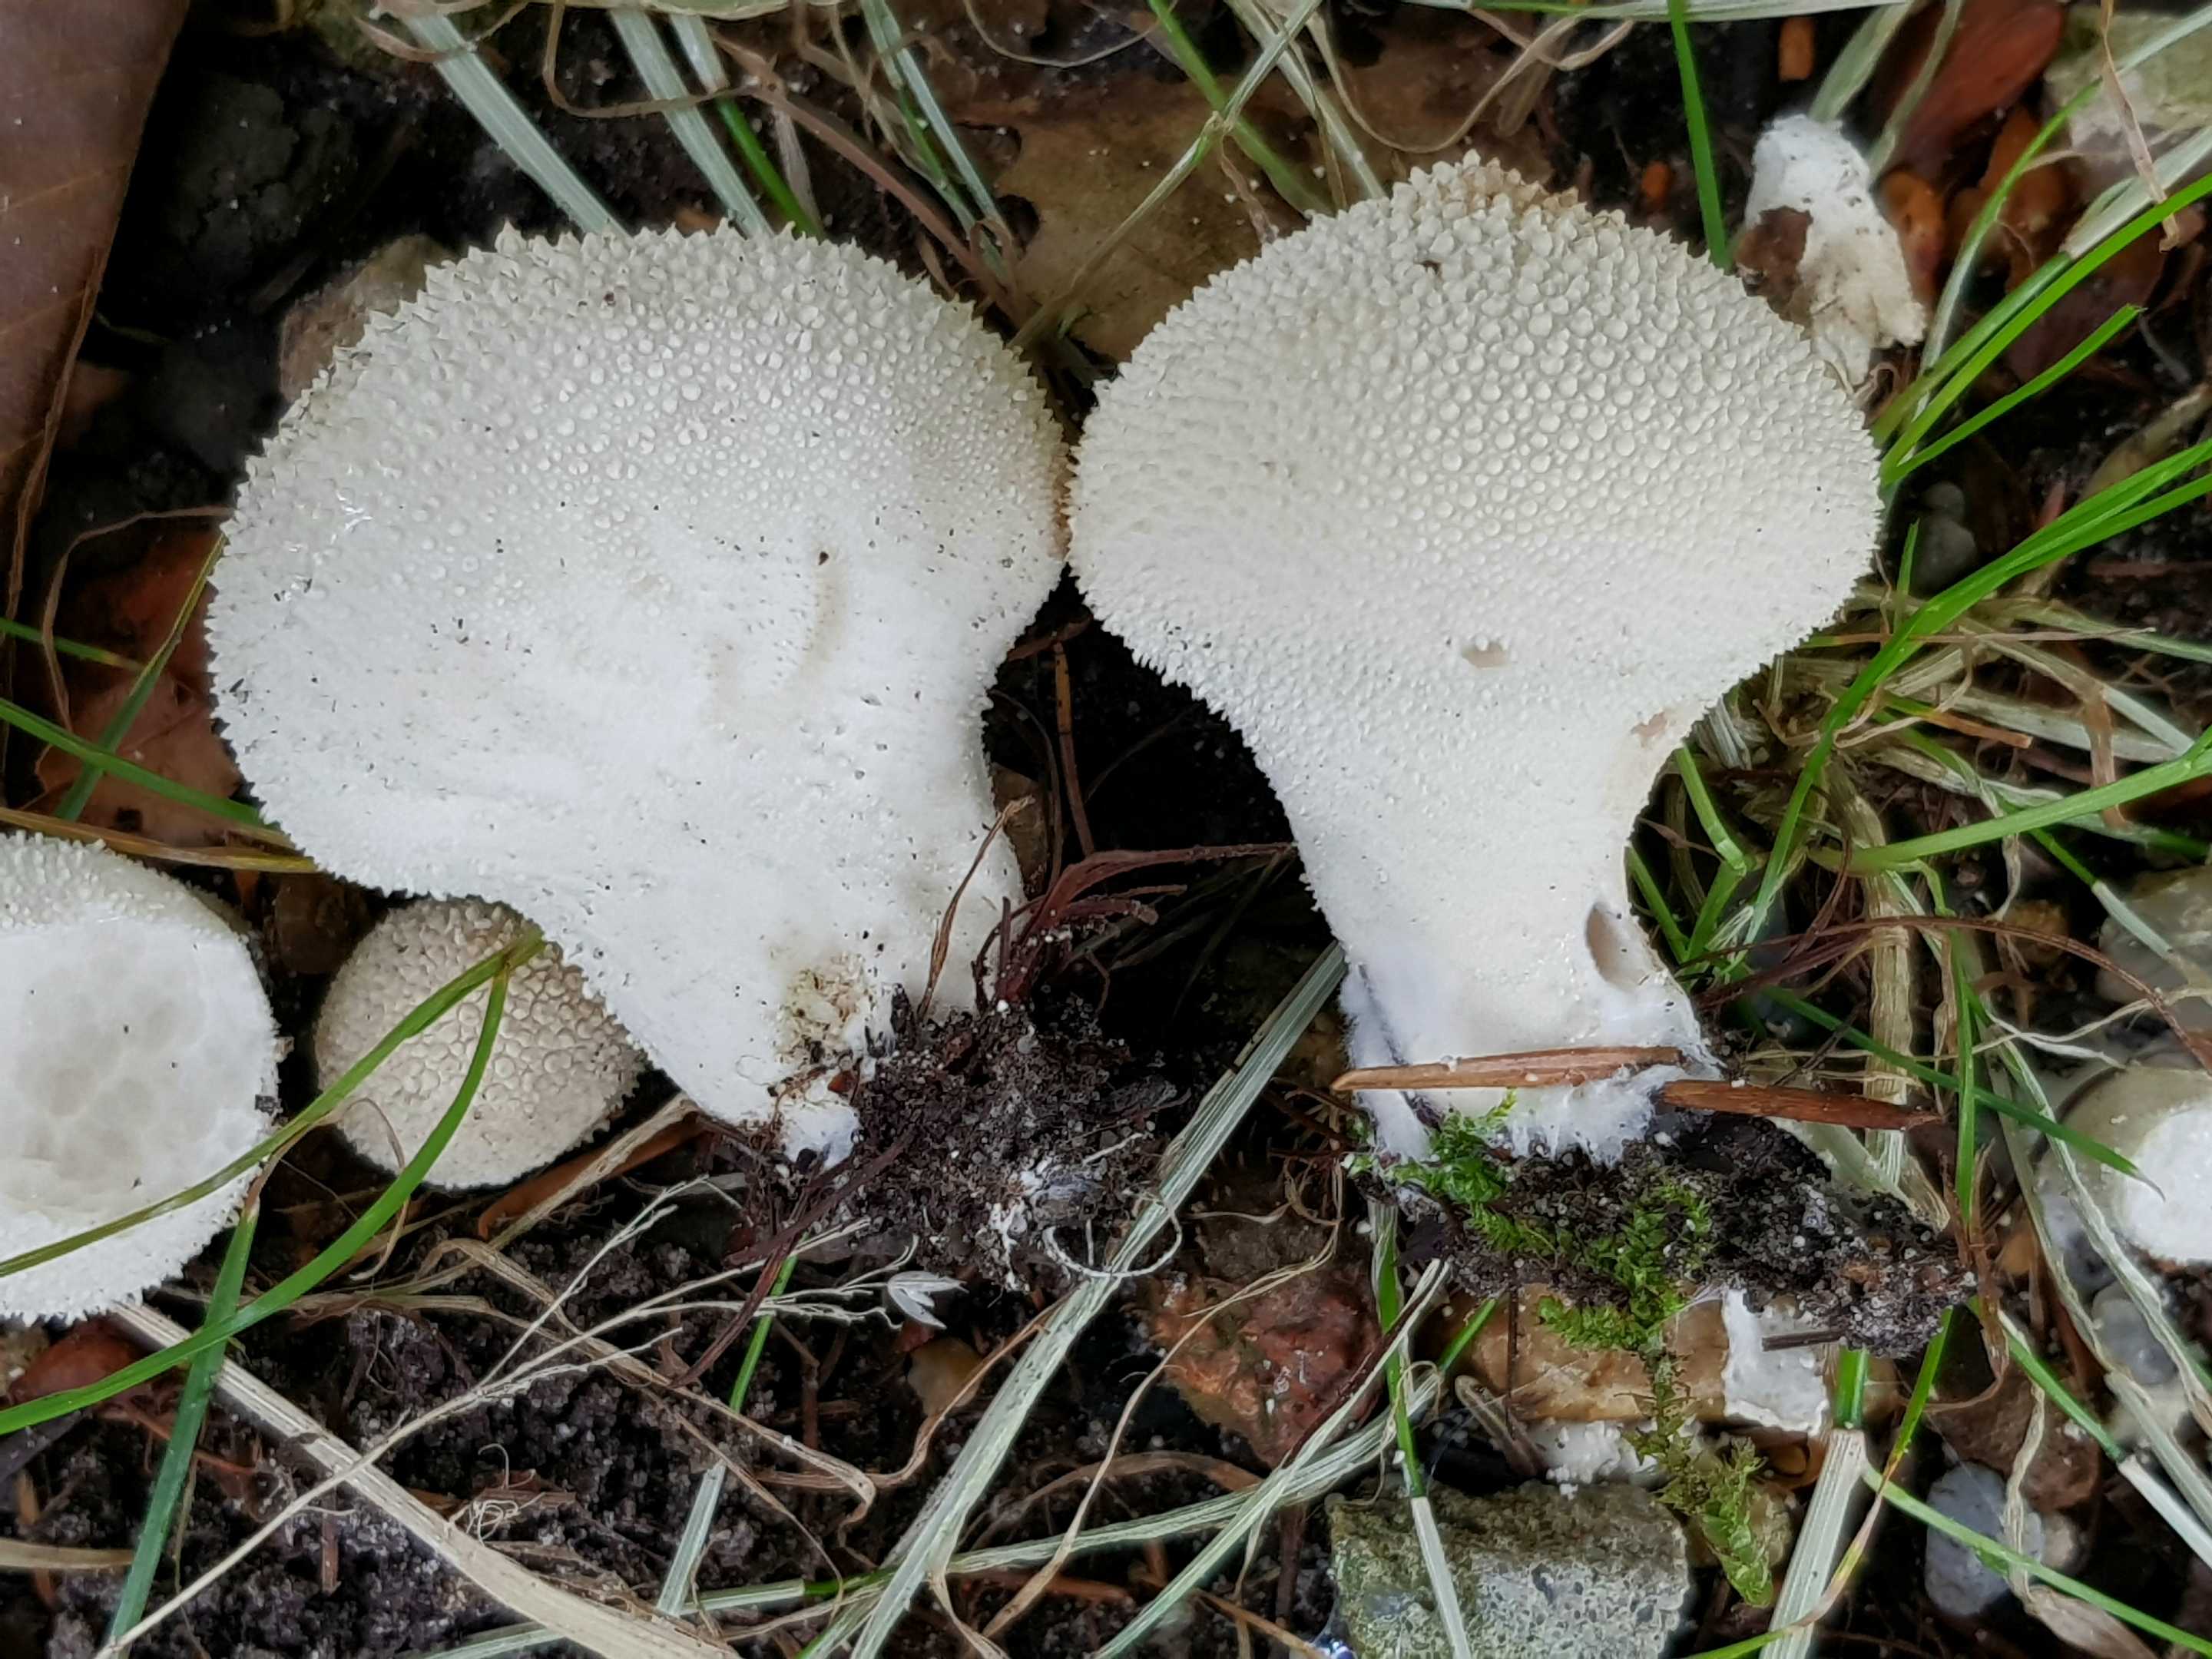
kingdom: Fungi
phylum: Basidiomycota
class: Agaricomycetes
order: Agaricales
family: Lycoperdaceae
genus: Lycoperdon
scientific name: Lycoperdon perlatum
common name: krystal-støvbold
